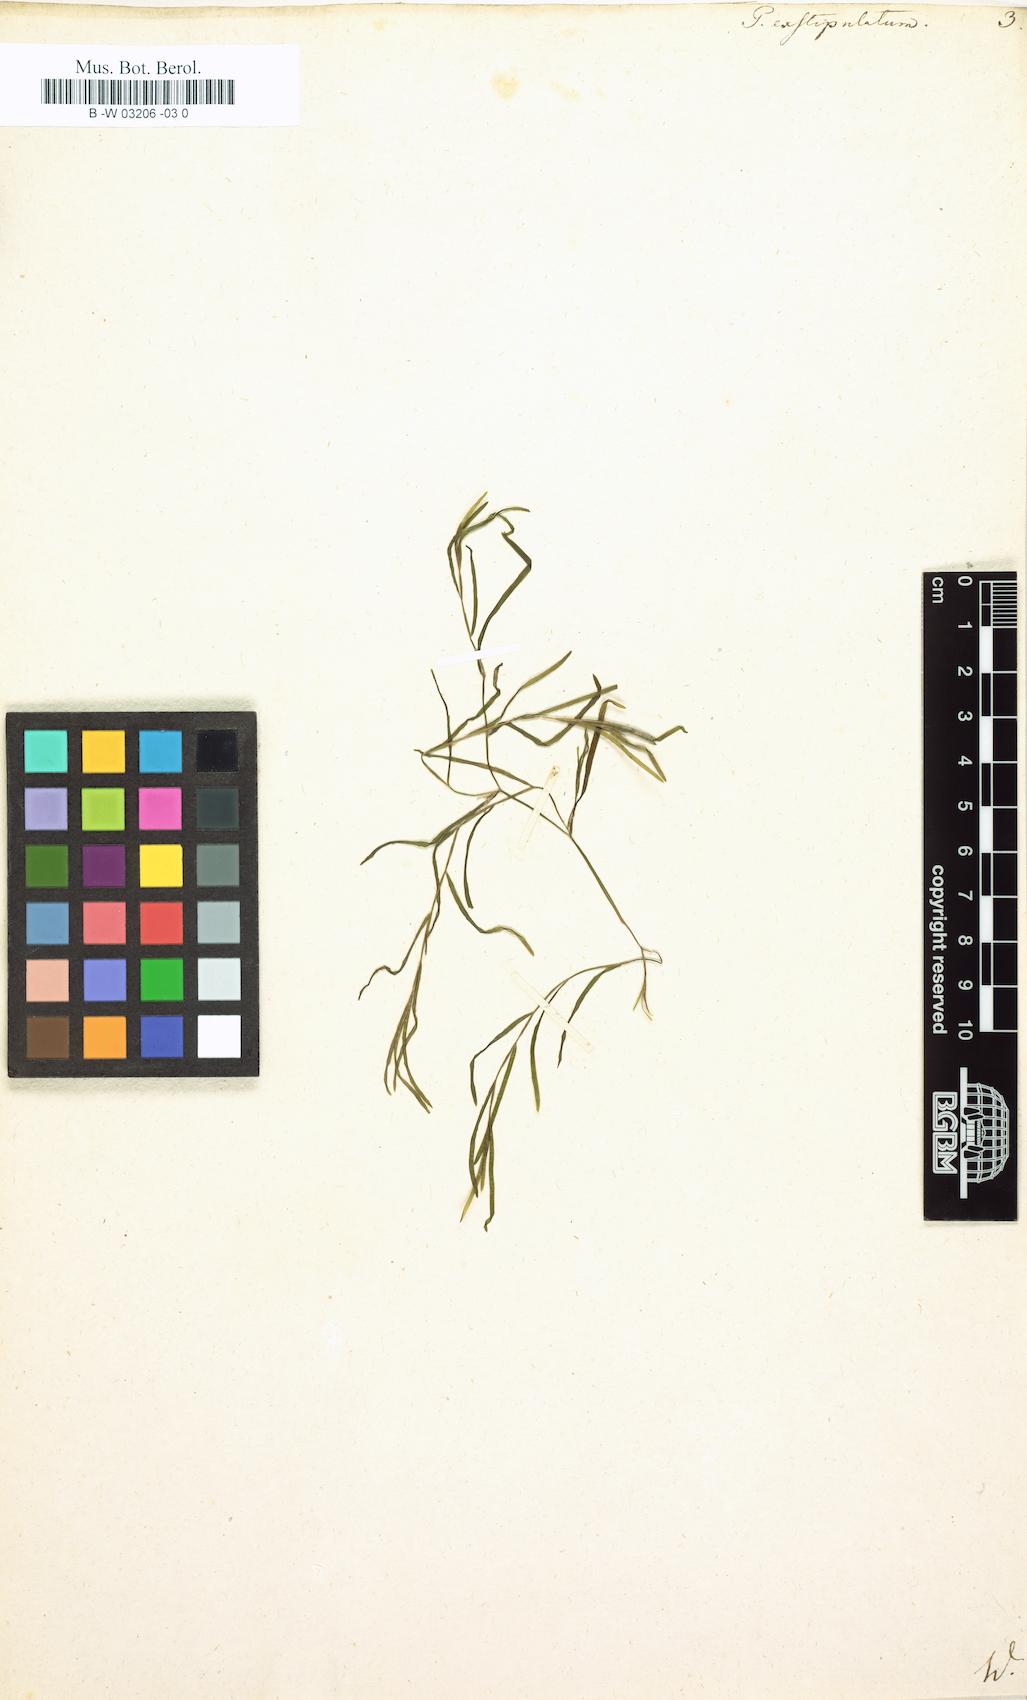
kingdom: Plantae
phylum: Tracheophyta
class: Liliopsida
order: Alismatales
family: Potamogetonaceae
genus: Potamogeton
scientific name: Potamogeton exstipulatus
